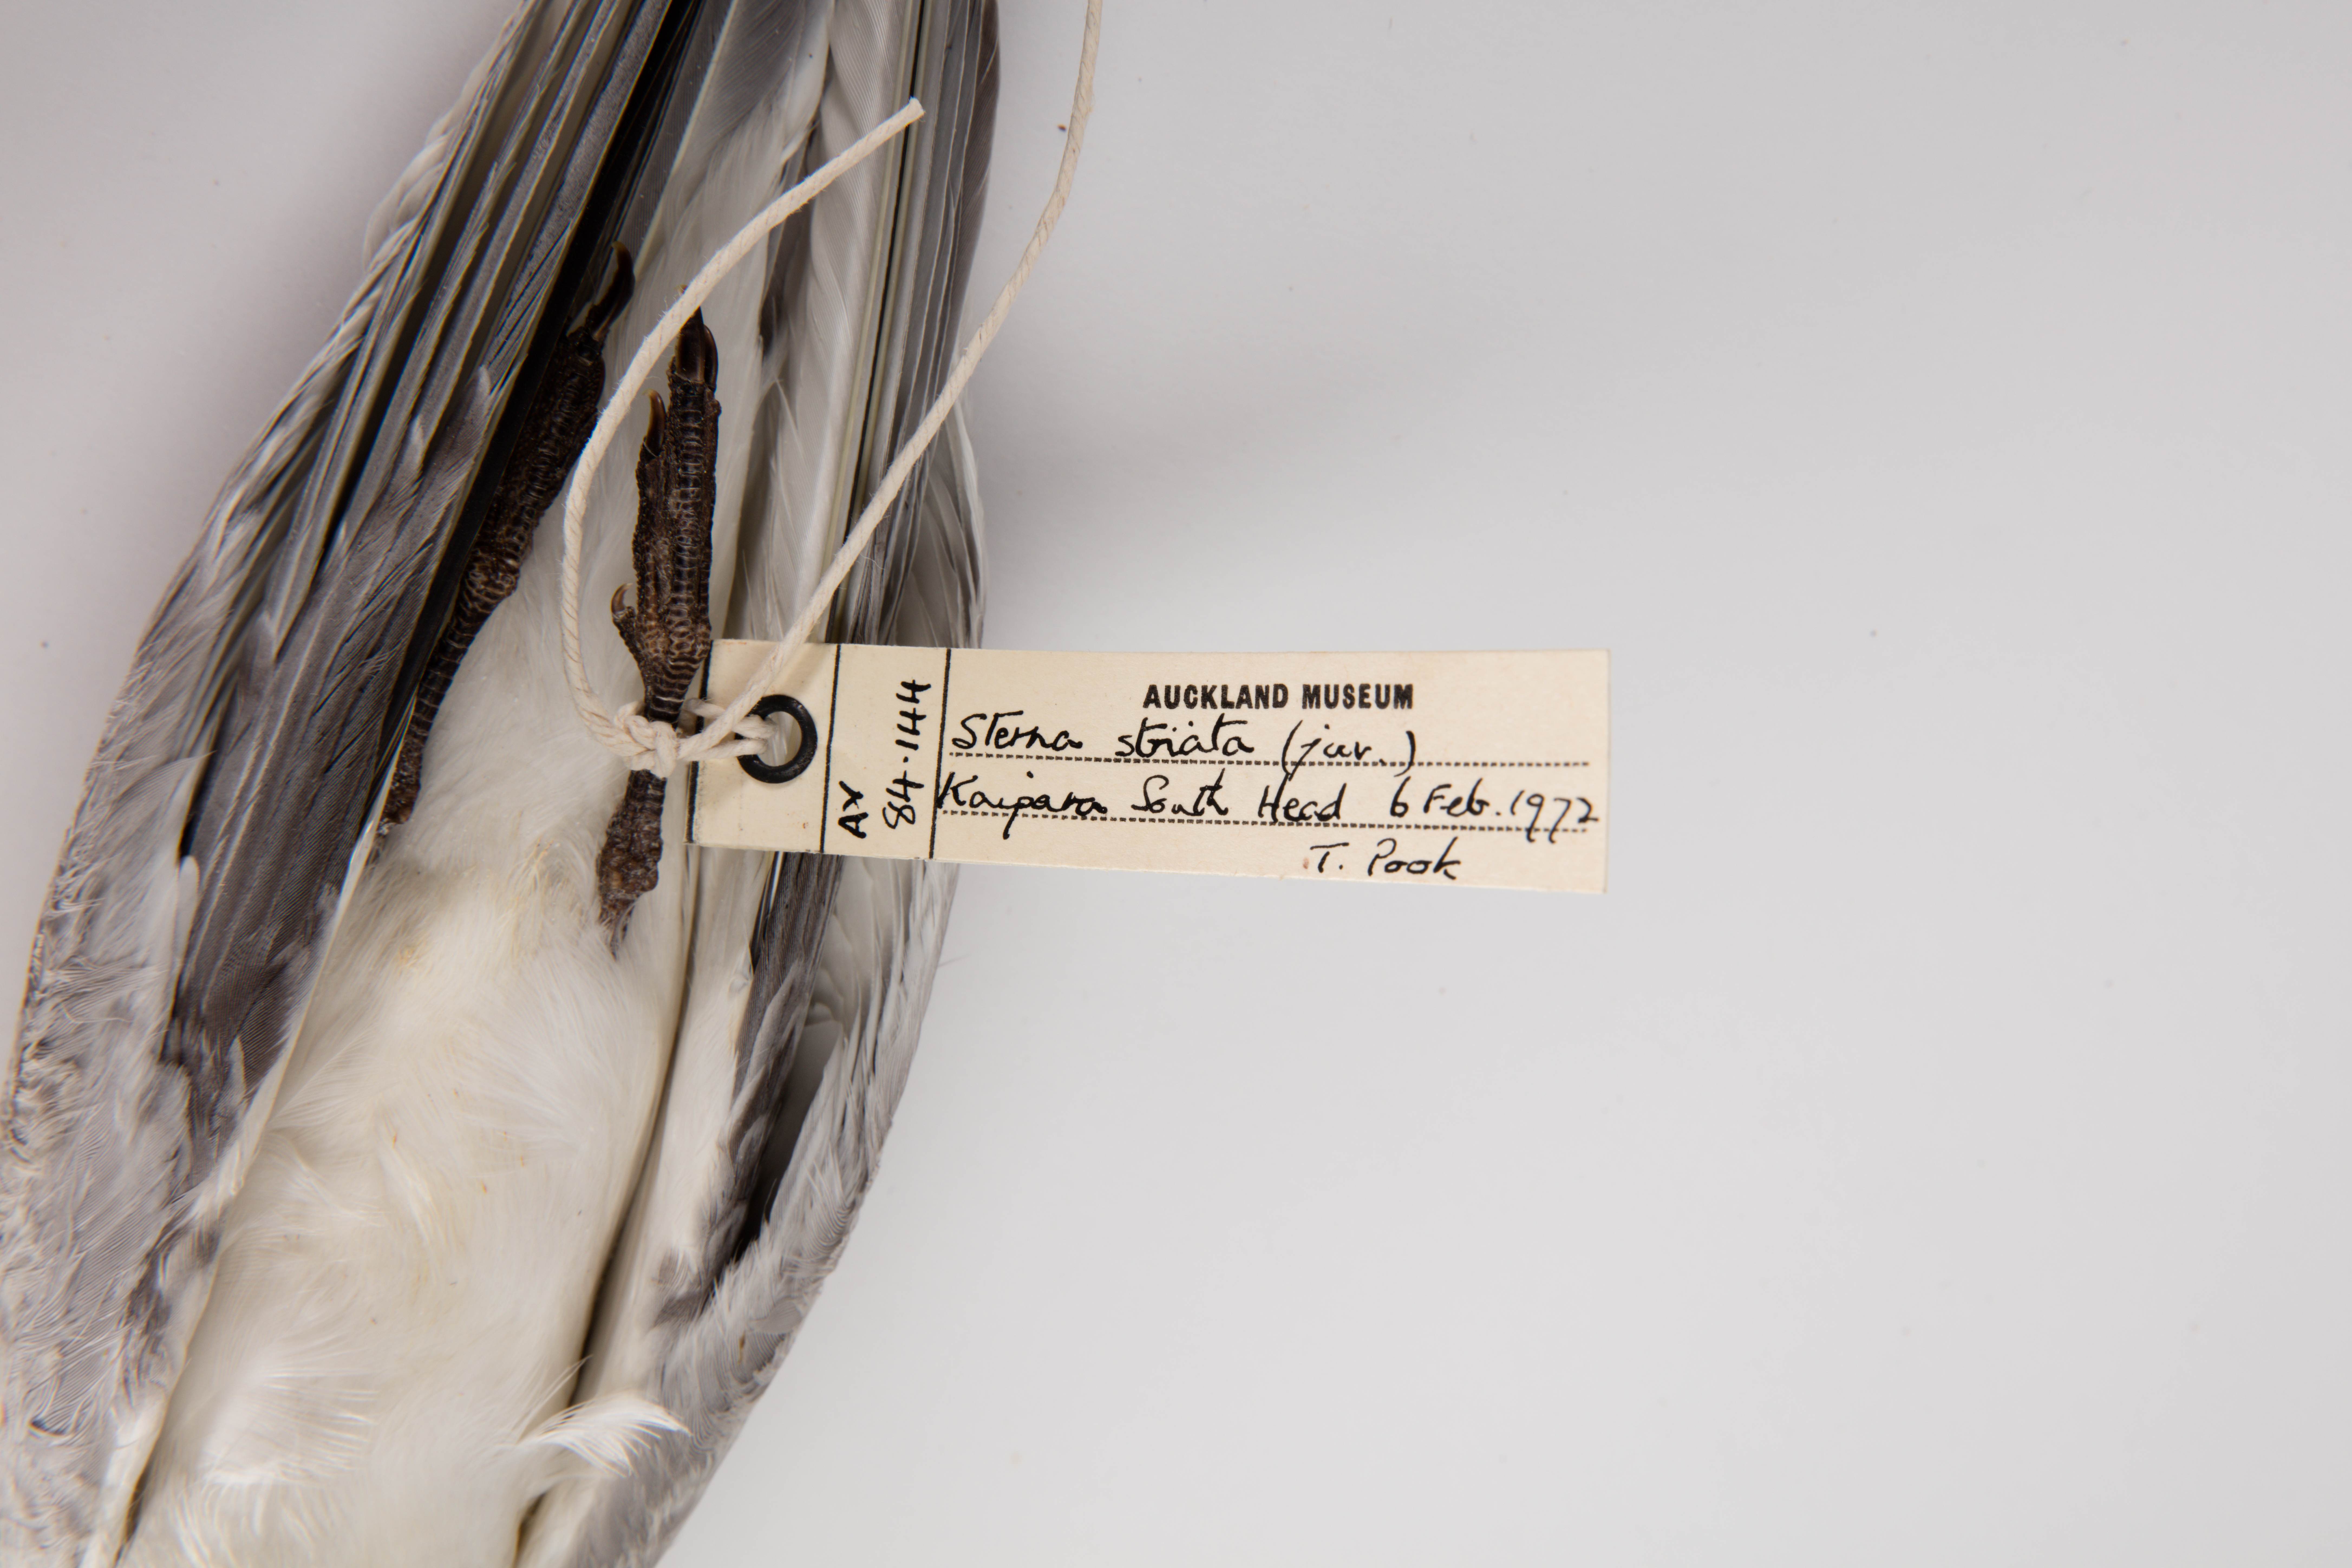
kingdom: Animalia
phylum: Chordata
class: Aves
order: Charadriiformes
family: Laridae
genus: Sterna
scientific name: Sterna striata
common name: White-fronted tern
